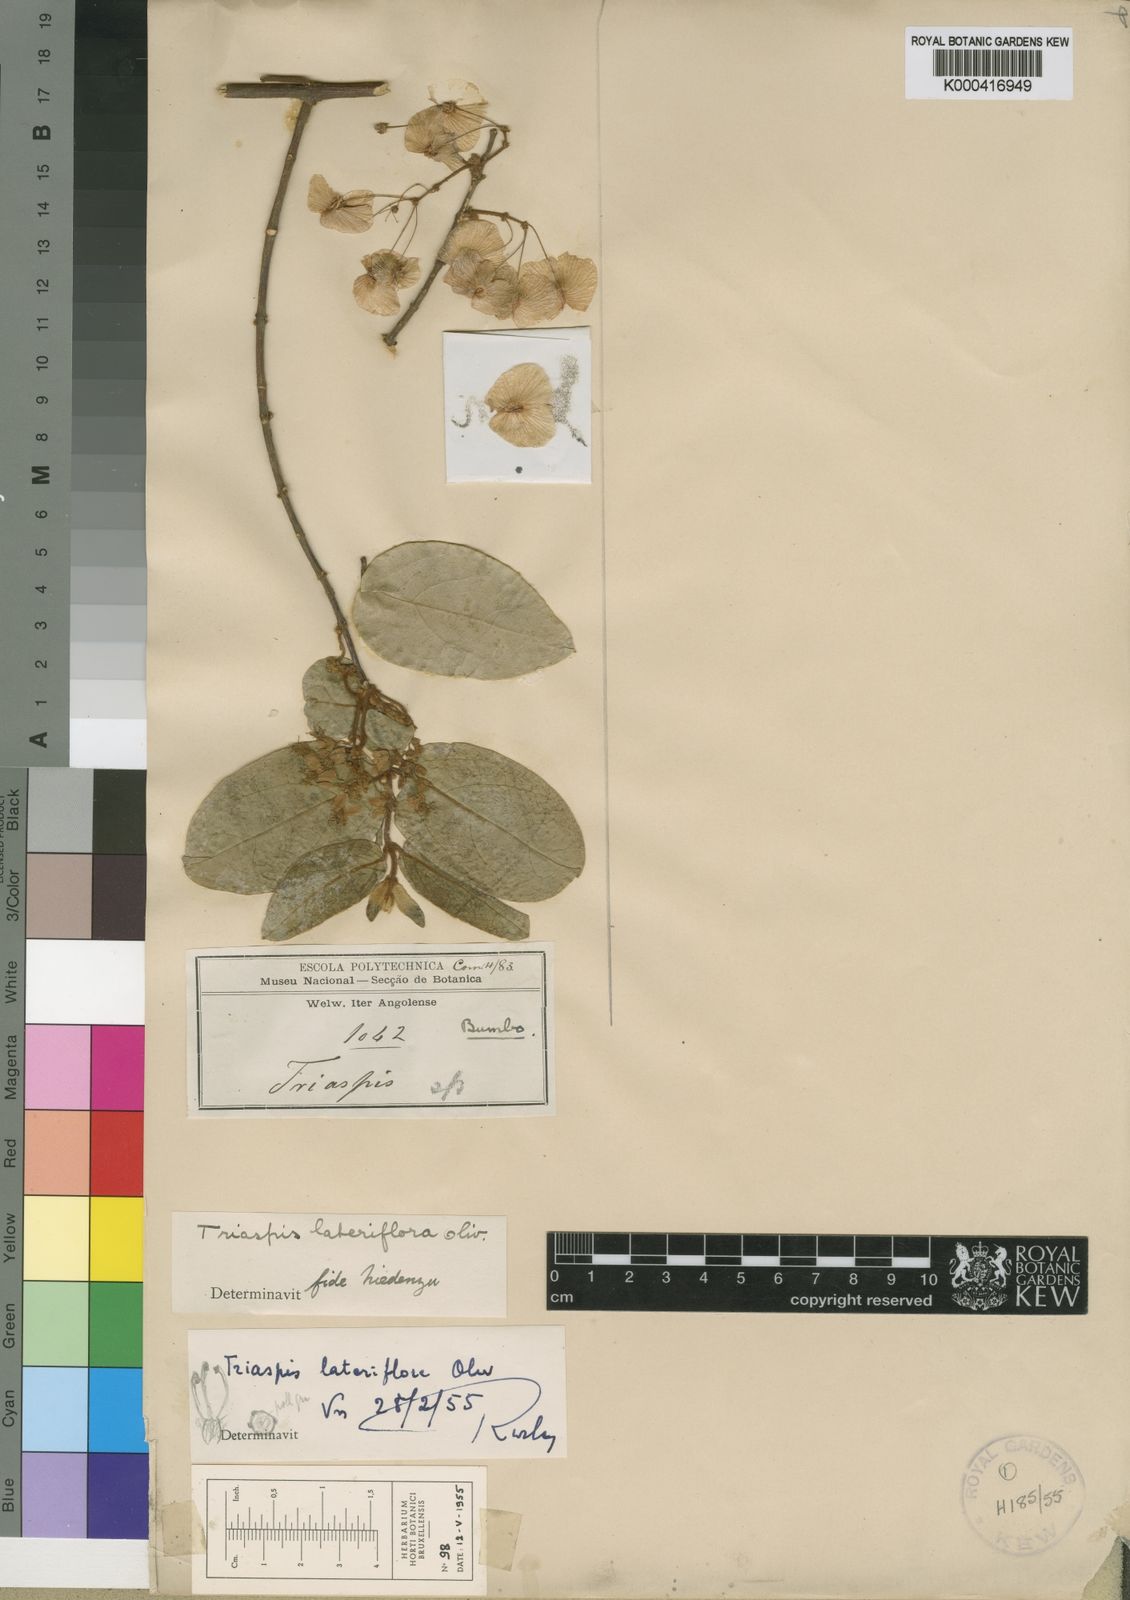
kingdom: Plantae
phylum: Tracheophyta
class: Magnoliopsida
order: Malpighiales
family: Malpighiaceae
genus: Triaspis
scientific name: Triaspis lateriflora
